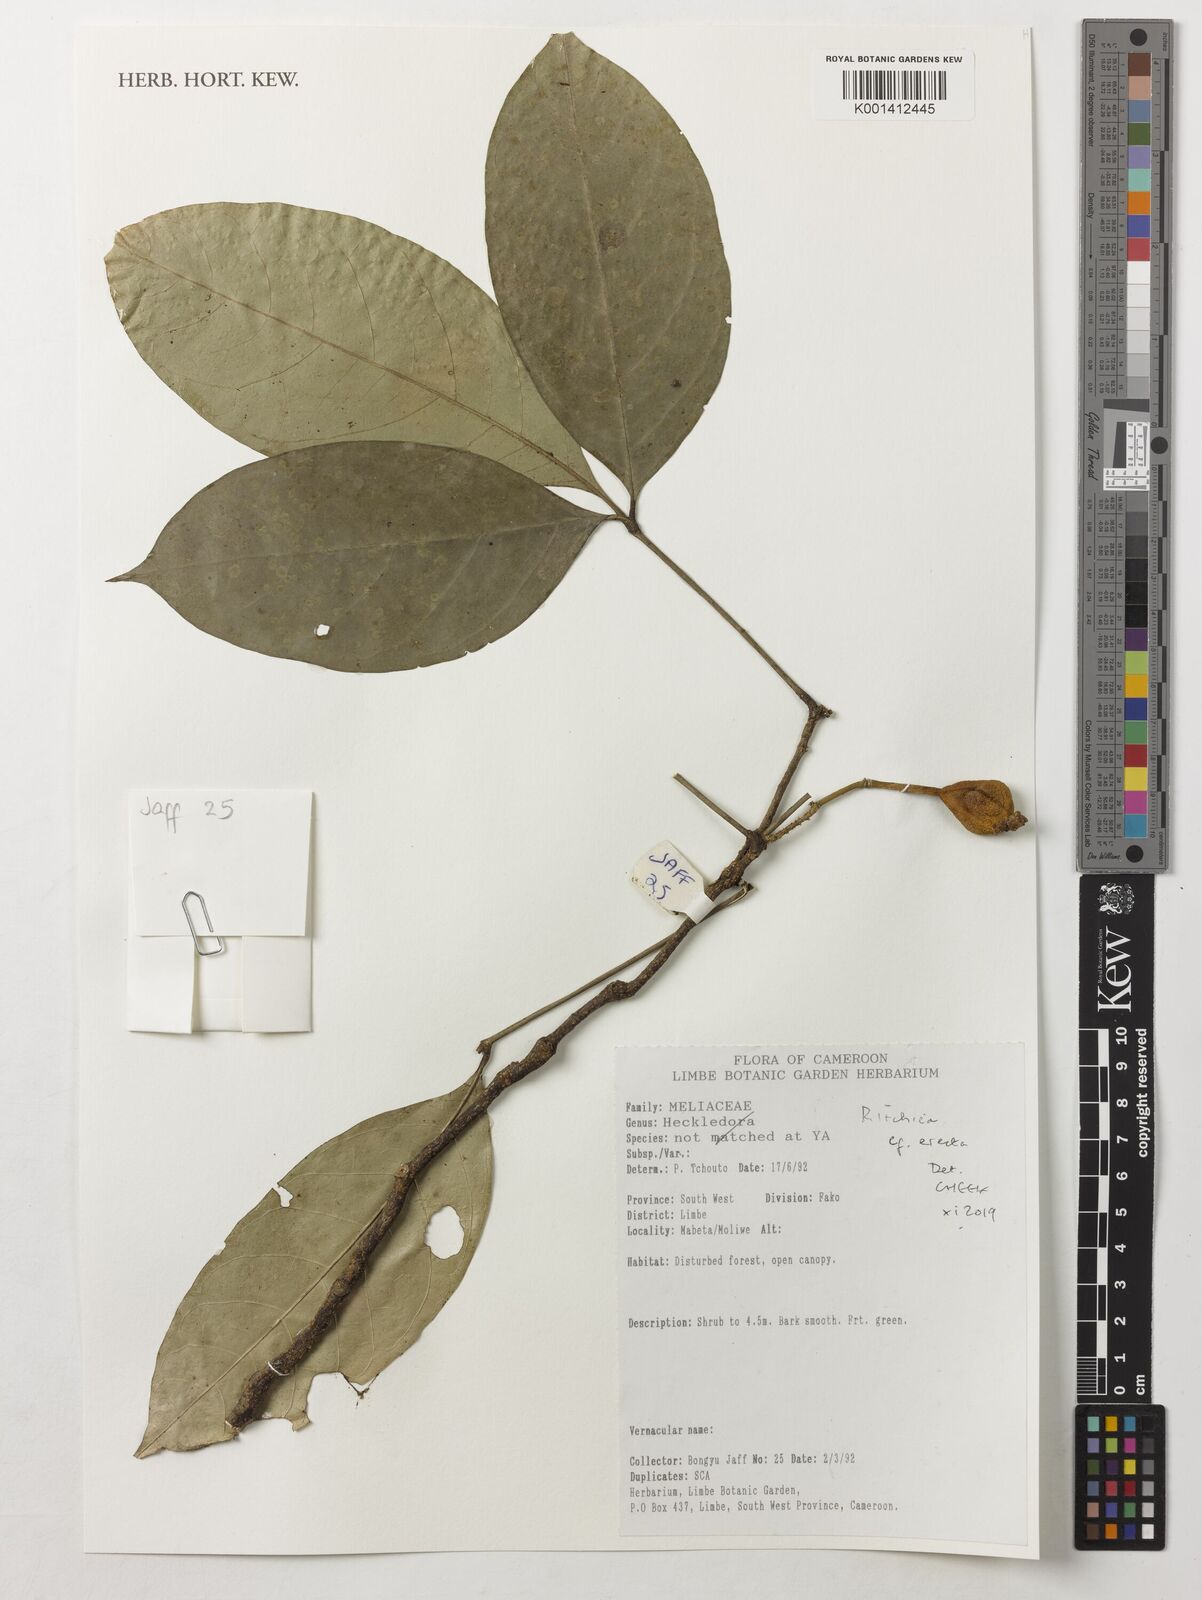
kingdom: Plantae
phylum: Tracheophyta
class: Magnoliopsida
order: Brassicales
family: Capparaceae
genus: Ritchiea
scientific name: Ritchiea erecta
